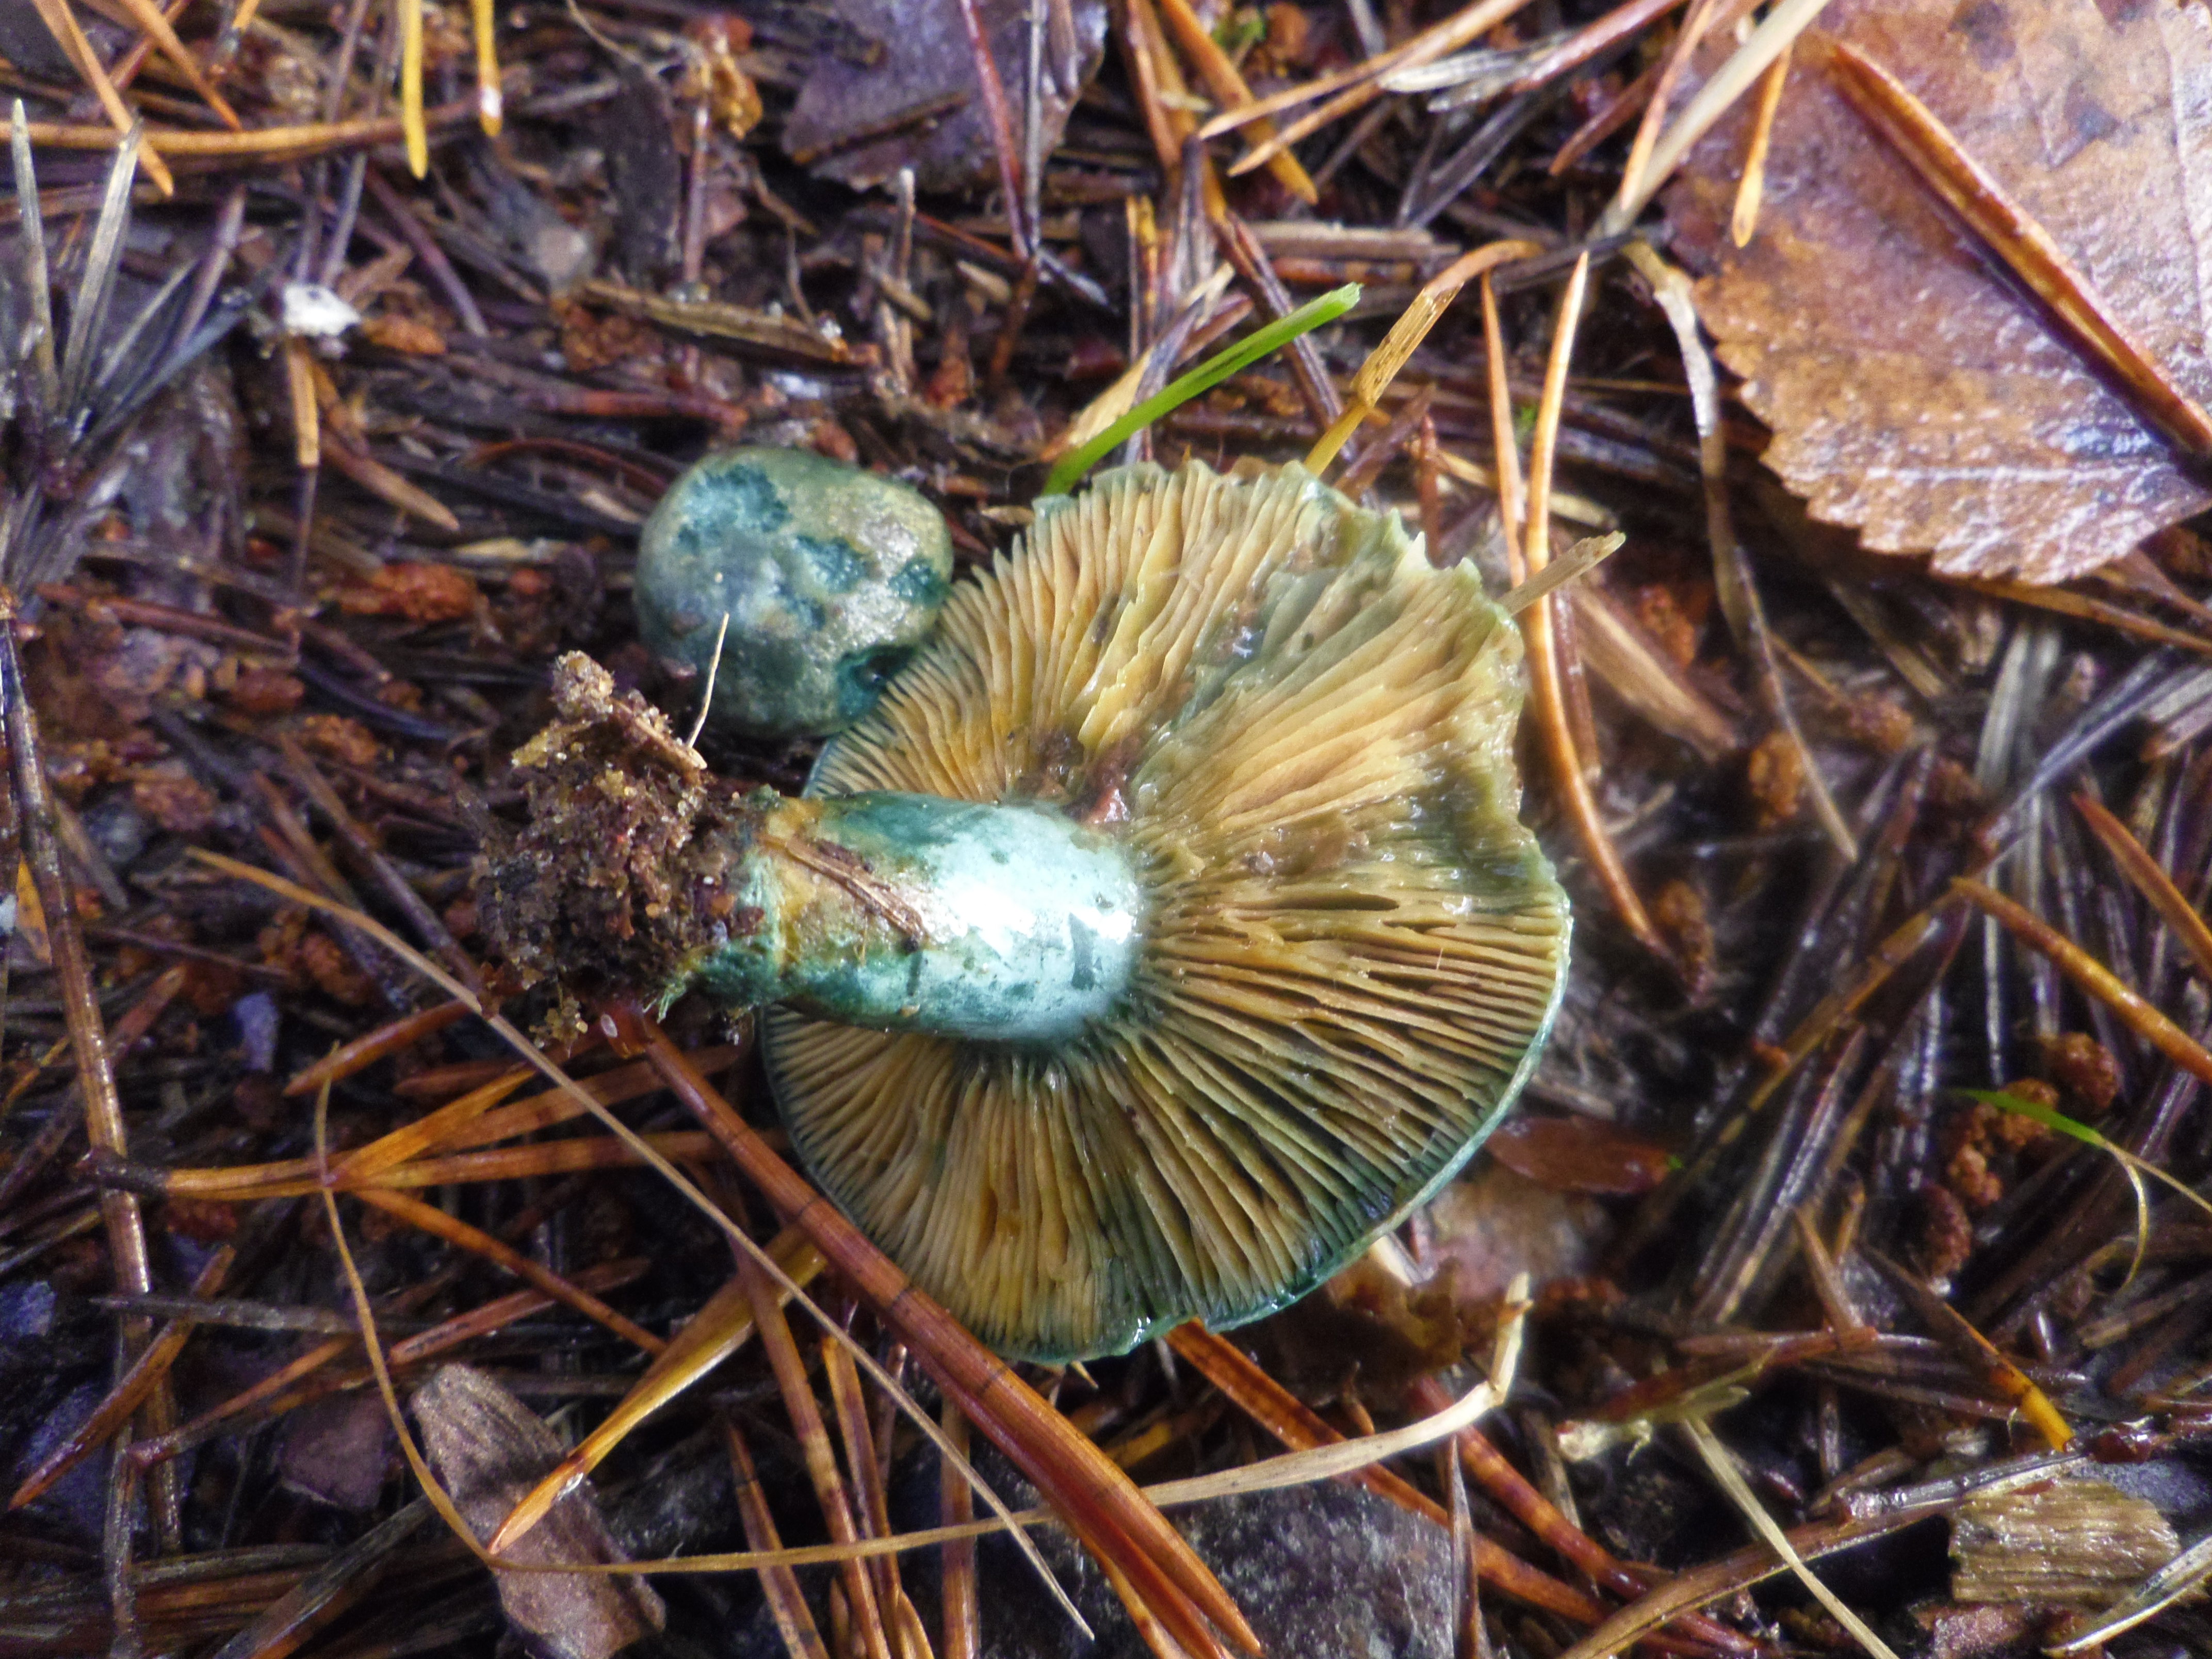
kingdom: Fungi
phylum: Basidiomycota
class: Agaricomycetes
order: Russulales
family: Russulaceae
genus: Lactarius
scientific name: Lactarius quieticolor
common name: Carrot milkcap
